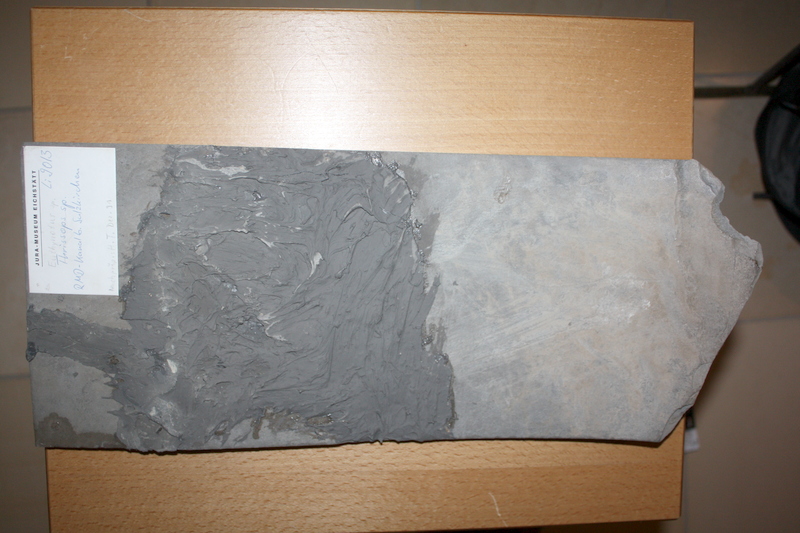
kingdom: Animalia
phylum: Chordata
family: Pachycormidae
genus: Euthynotus
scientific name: Euthynotus
